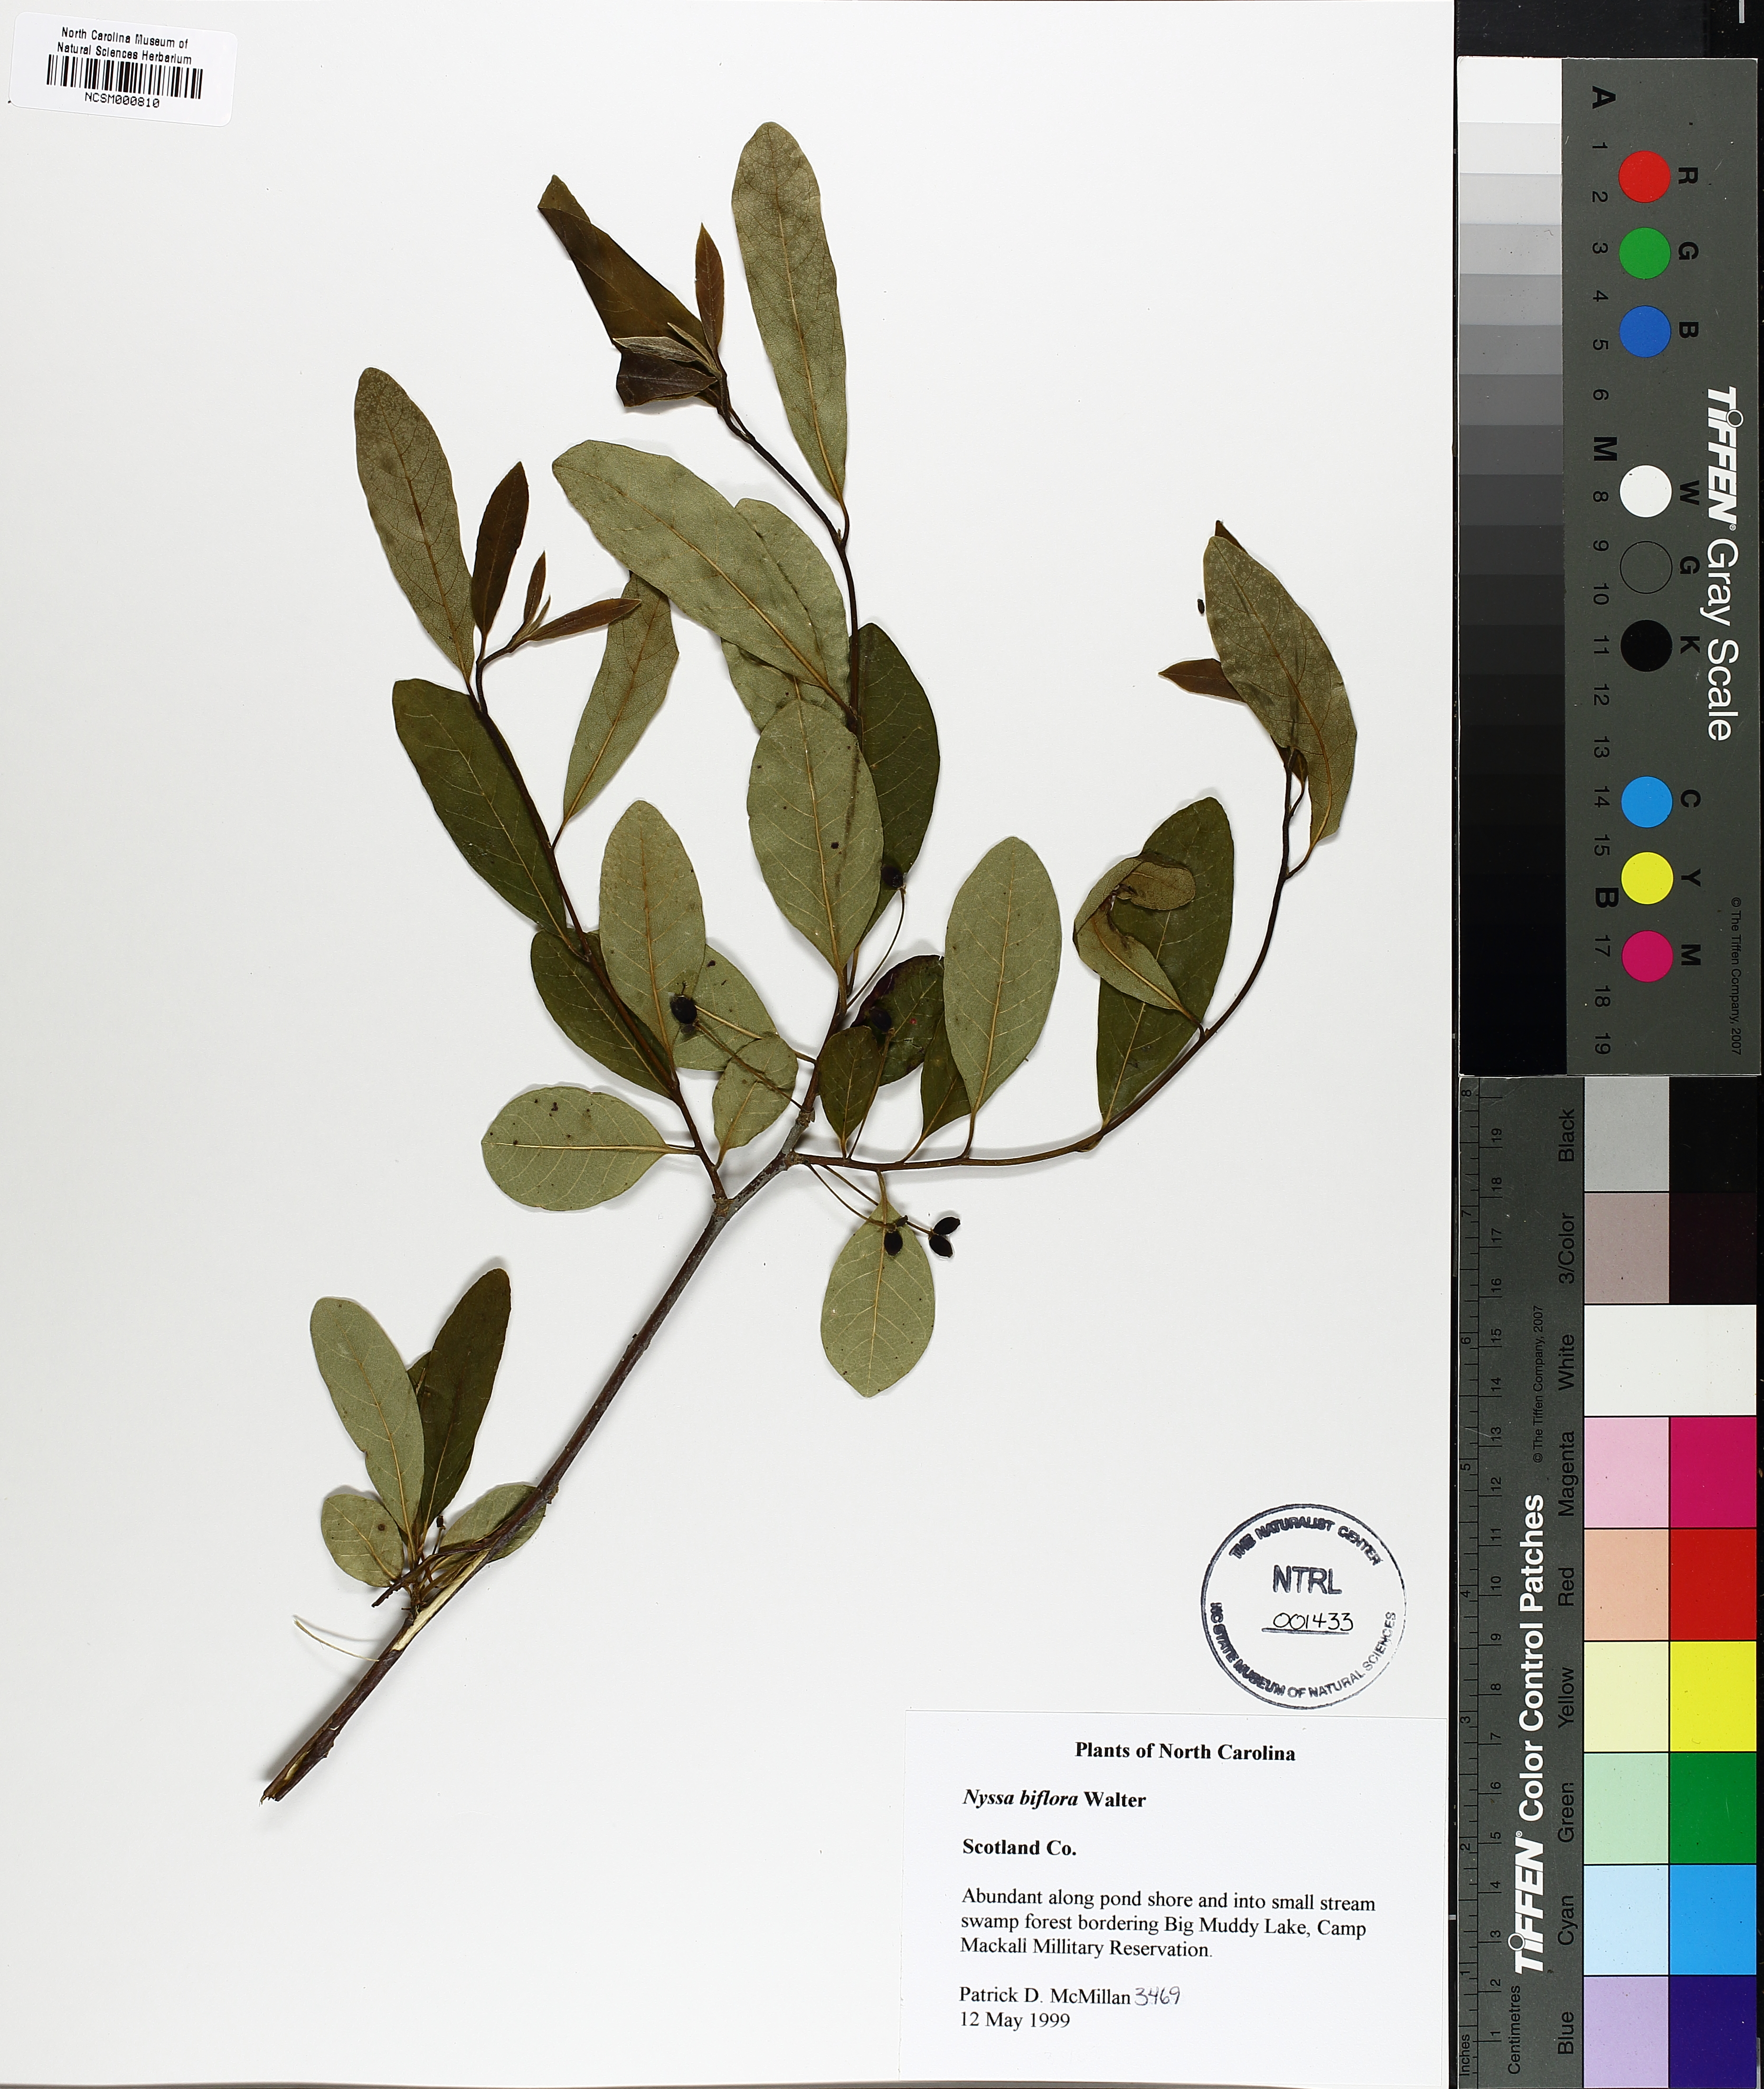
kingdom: Plantae
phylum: Tracheophyta
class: Magnoliopsida
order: Cornales
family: Nyssaceae
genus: Nyssa
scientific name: Nyssa biflora
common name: Swamp blackgum
